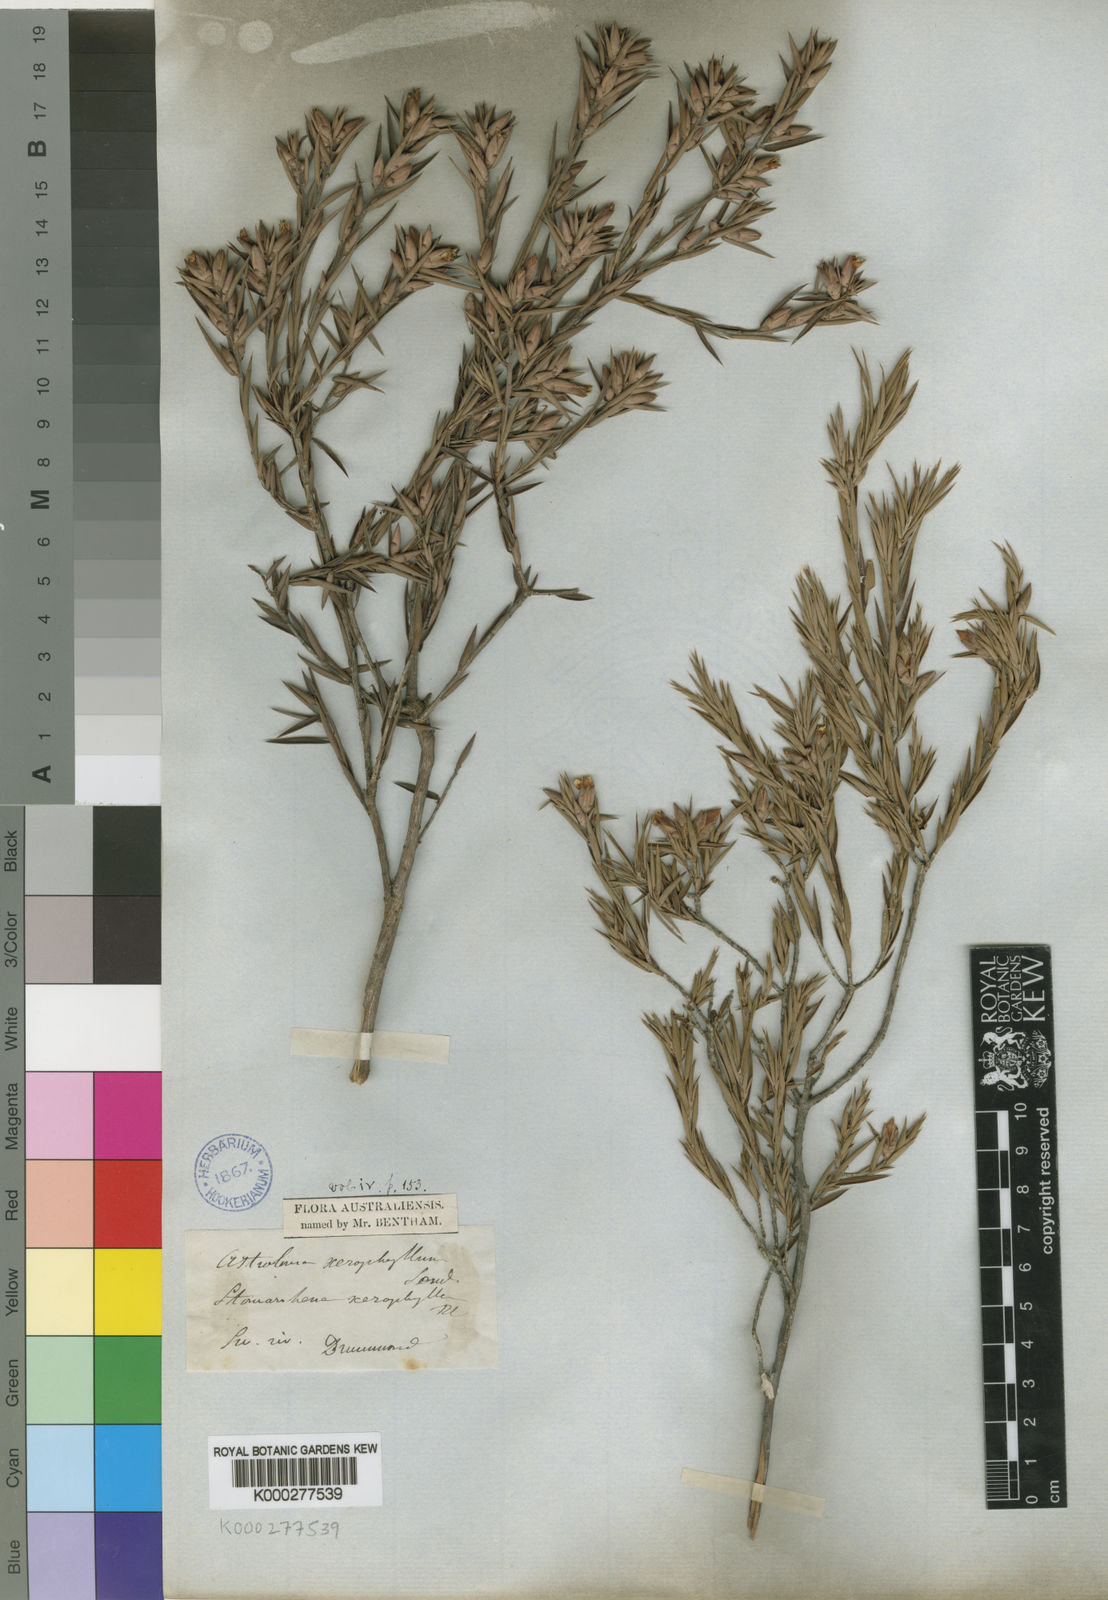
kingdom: Plantae
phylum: Tracheophyta
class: Magnoliopsida
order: Ericales
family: Ericaceae
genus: Styphelia
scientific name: Styphelia xerophylla
